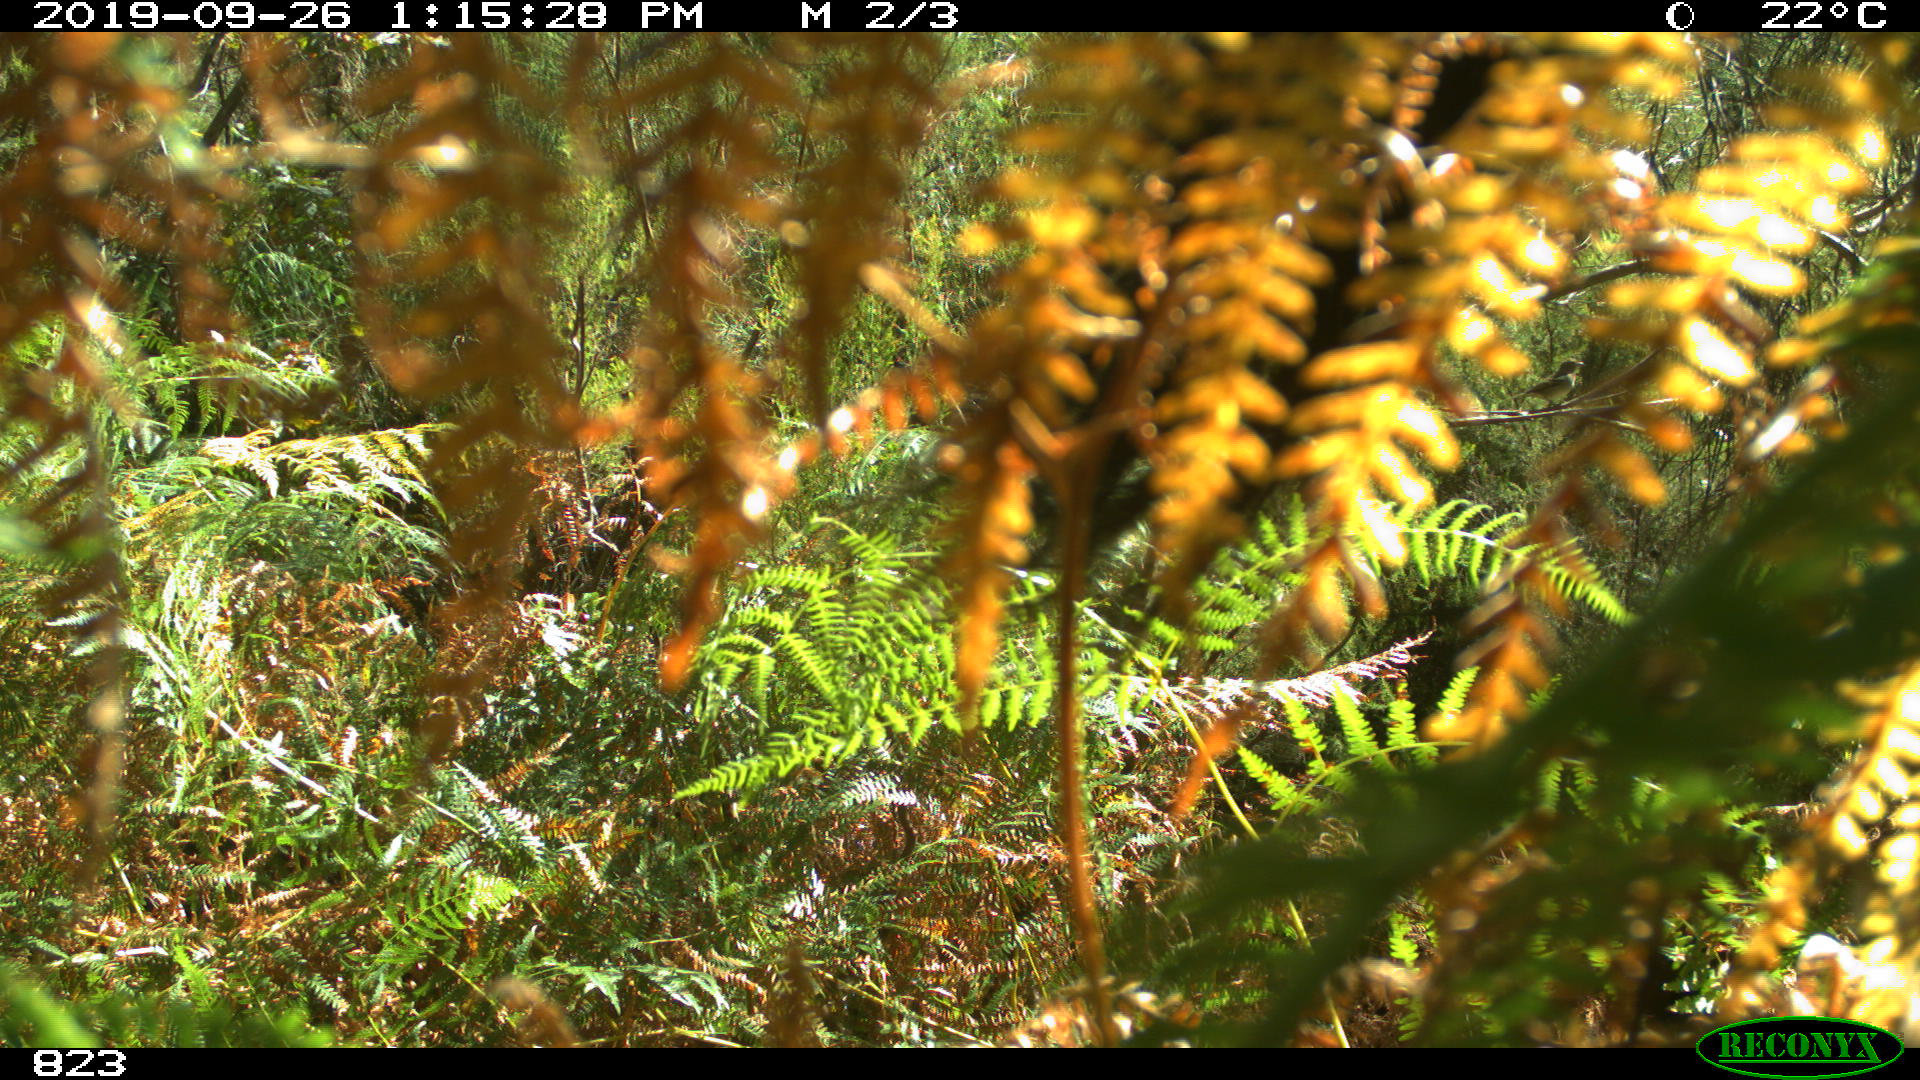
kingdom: Animalia
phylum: Chordata
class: Mammalia
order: Perissodactyla
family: Equidae
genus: Equus
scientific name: Equus caballus
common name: Horse
